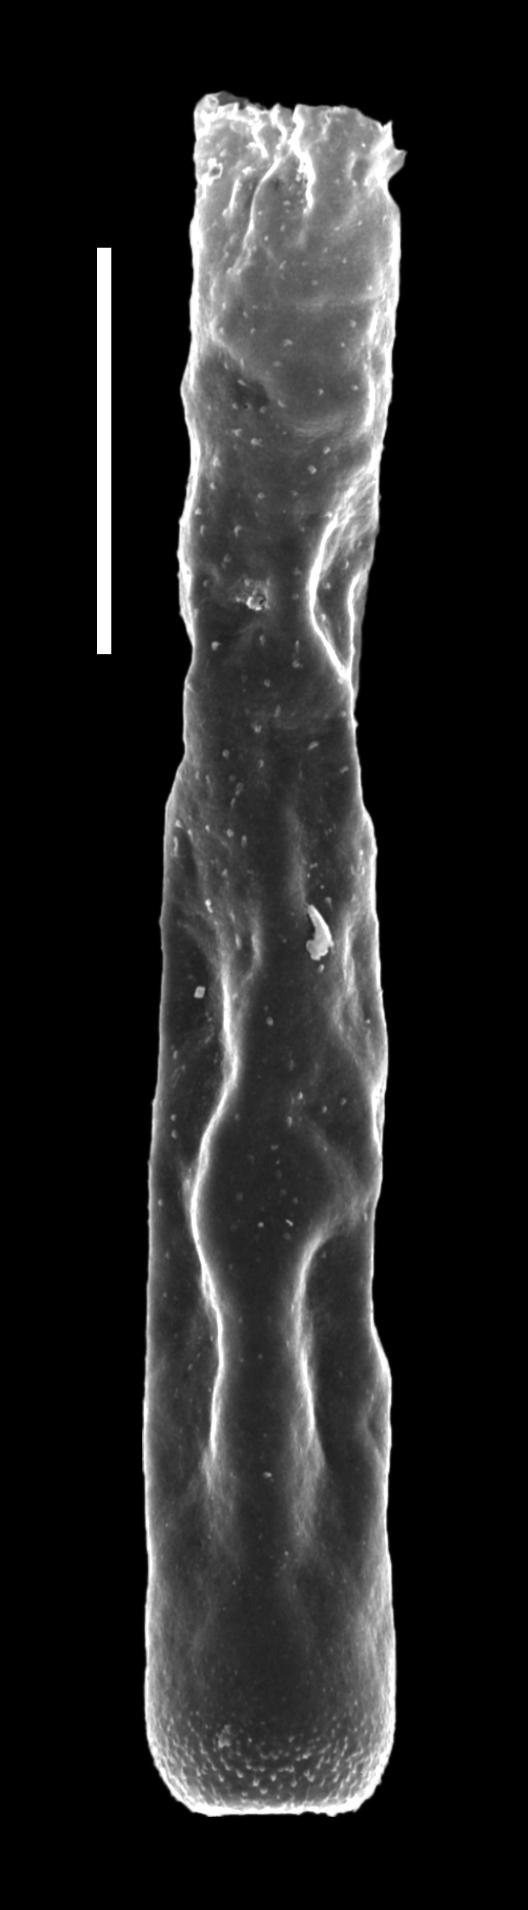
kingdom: Protozoa
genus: Belonechitina
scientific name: Belonechitina
